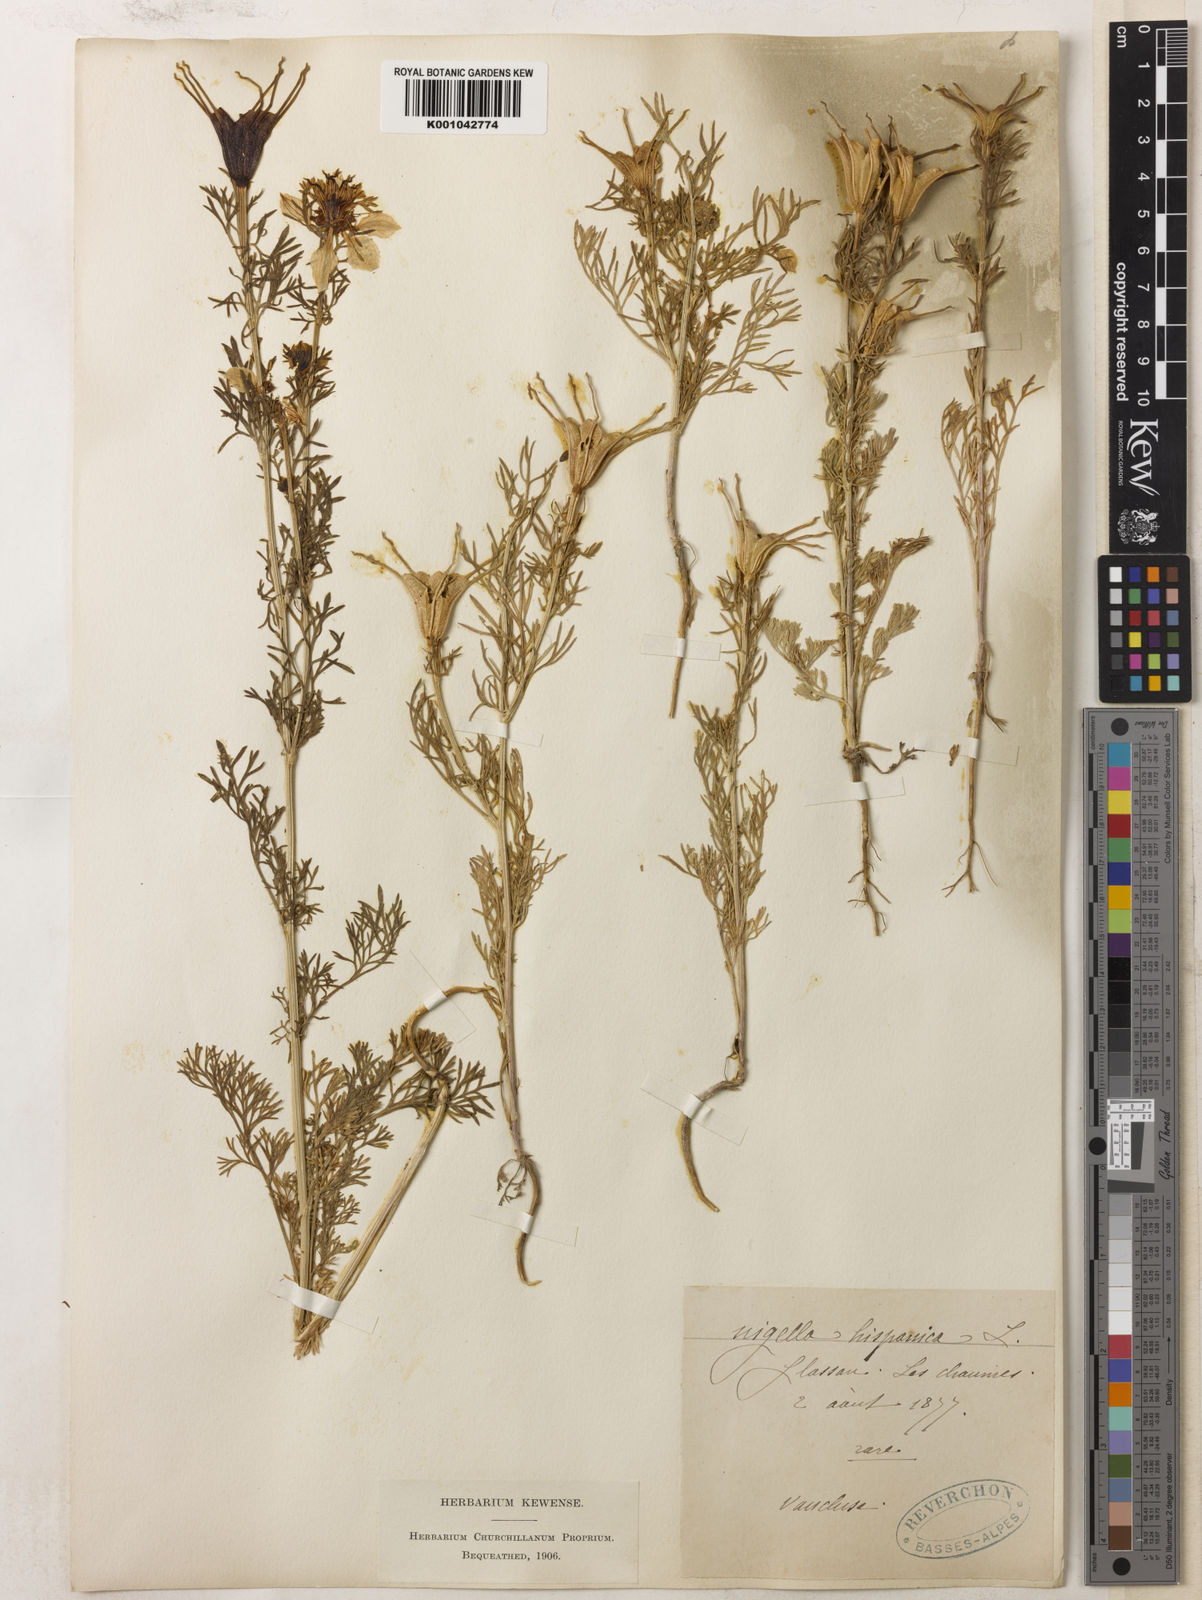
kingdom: Plantae
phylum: Tracheophyta
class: Magnoliopsida
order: Ranunculales
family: Ranunculaceae
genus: Nigella
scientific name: Nigella hispanica
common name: Fennel-flower
